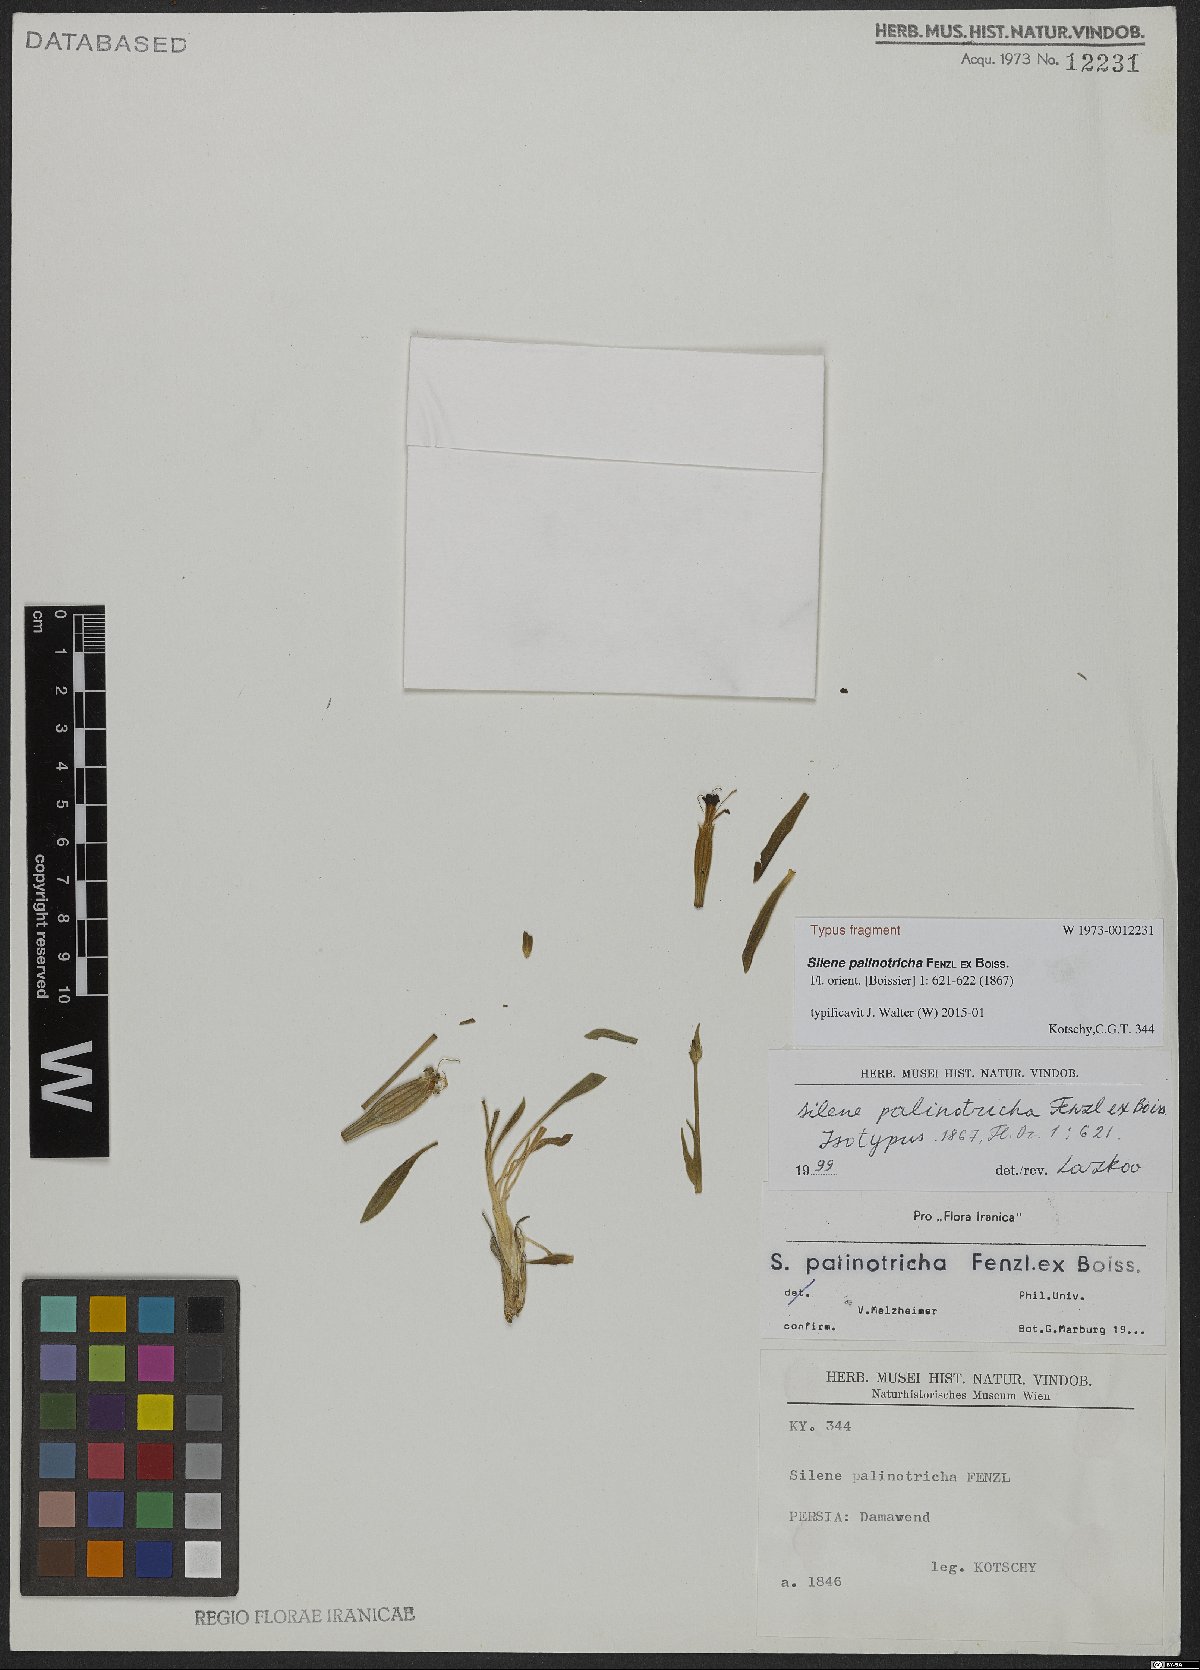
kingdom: Plantae
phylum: Tracheophyta
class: Magnoliopsida
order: Caryophyllales
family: Caryophyllaceae
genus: Silene
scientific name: Silene palinotricha
